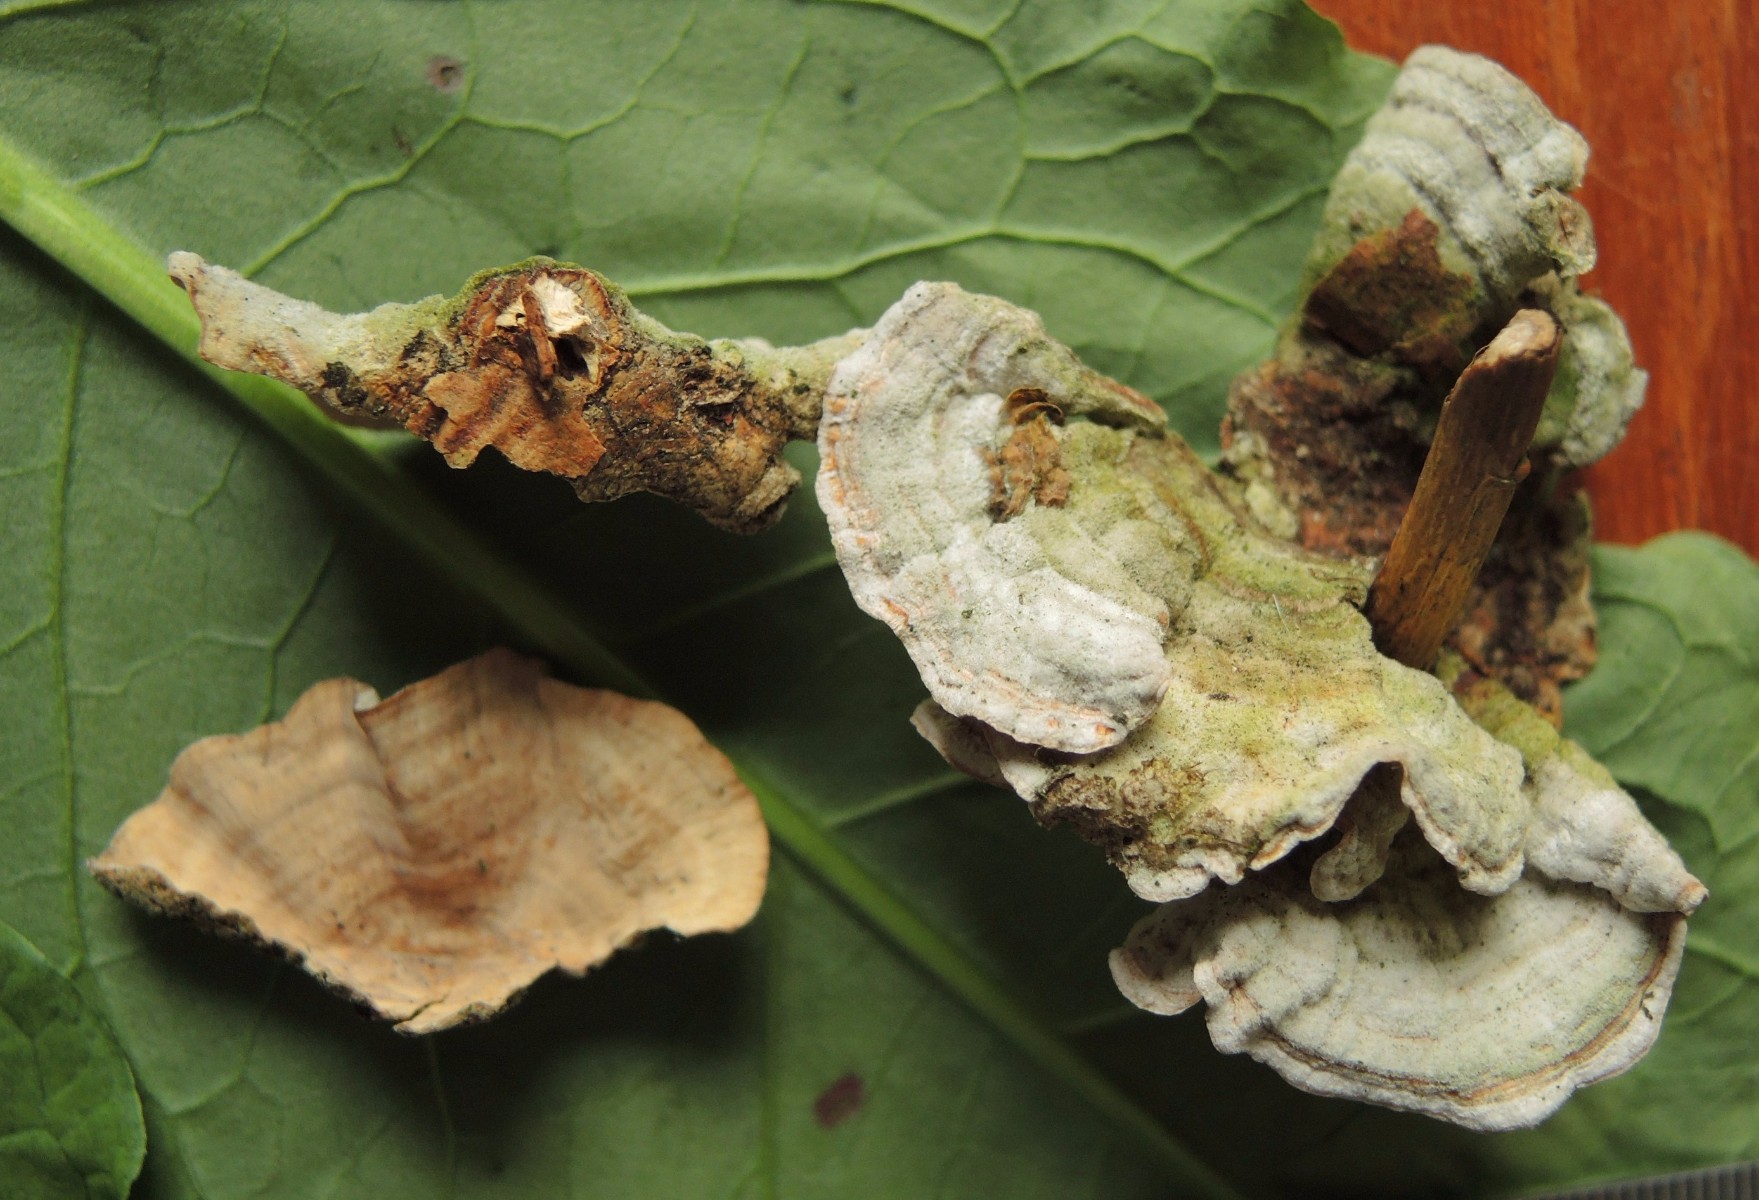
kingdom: Fungi
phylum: Basidiomycota
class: Agaricomycetes
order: Russulales
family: Stereaceae
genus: Stereum
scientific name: Stereum subtomentosum
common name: smuk lædersvamp
